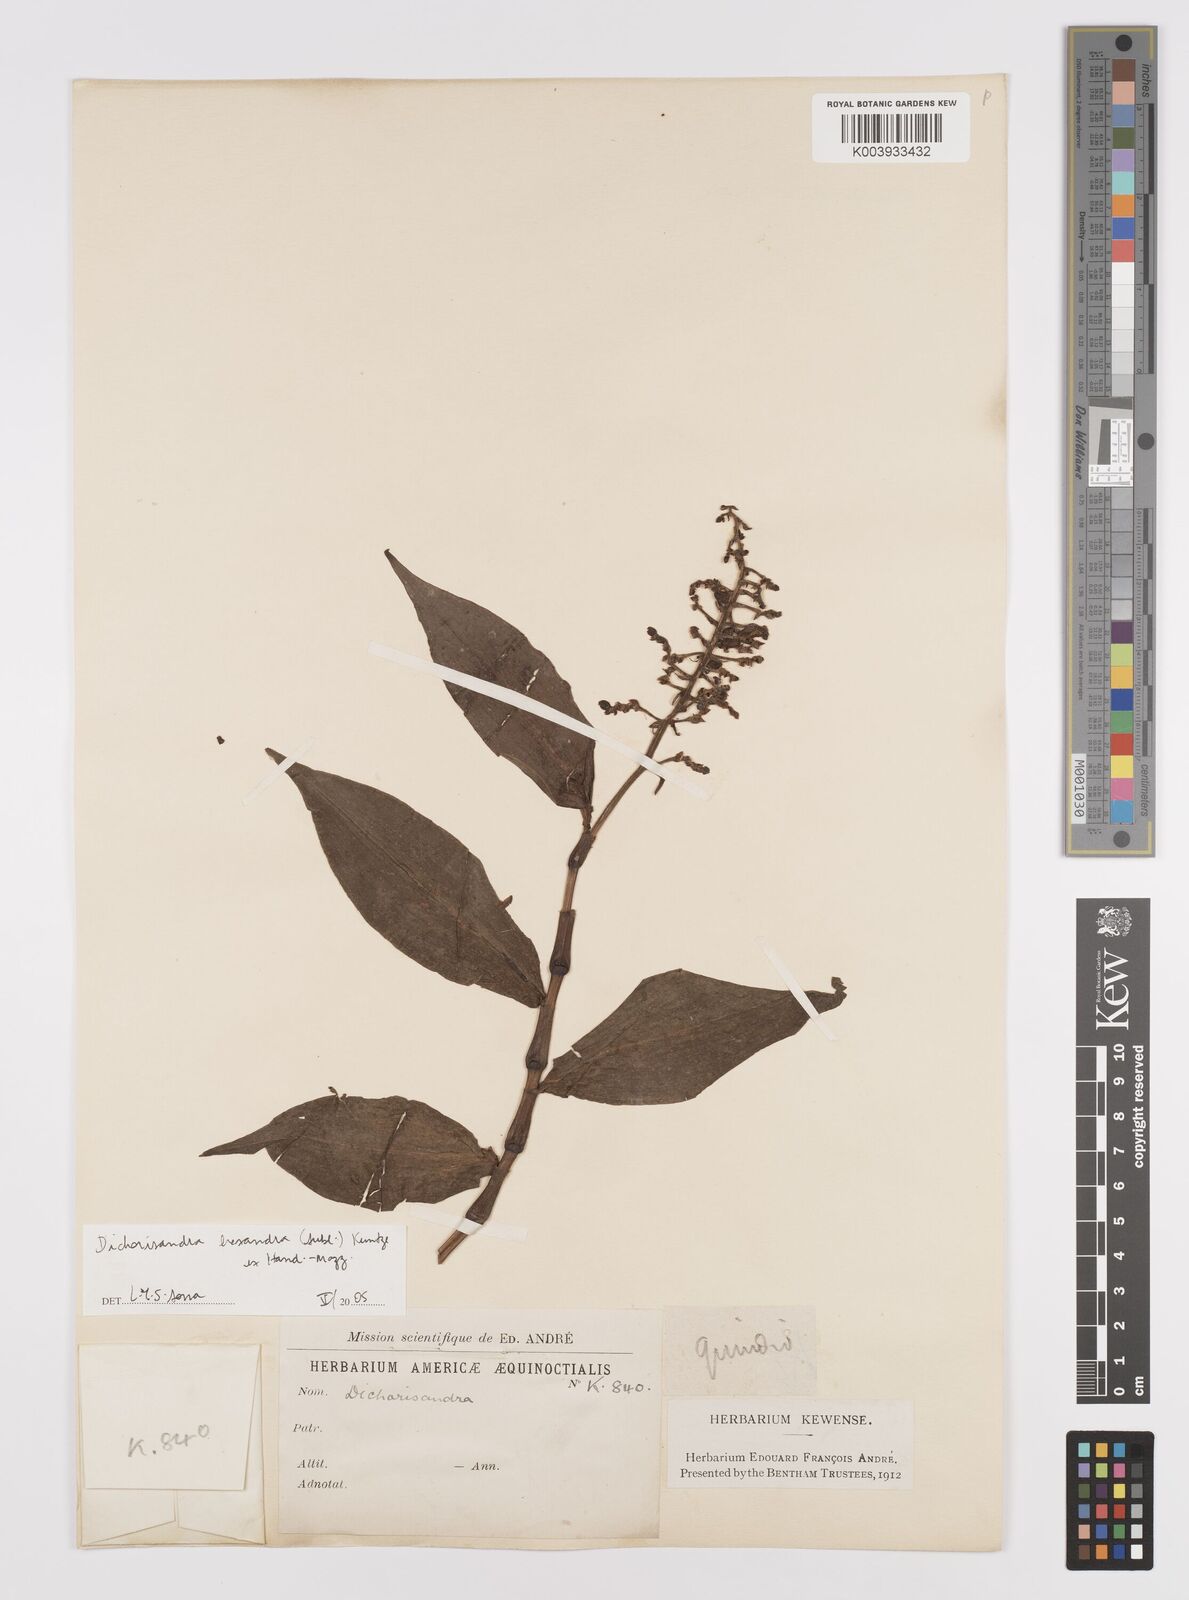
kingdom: Plantae
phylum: Tracheophyta
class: Liliopsida
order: Commelinales
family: Commelinaceae
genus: Dichorisandra
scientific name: Dichorisandra hexandra
